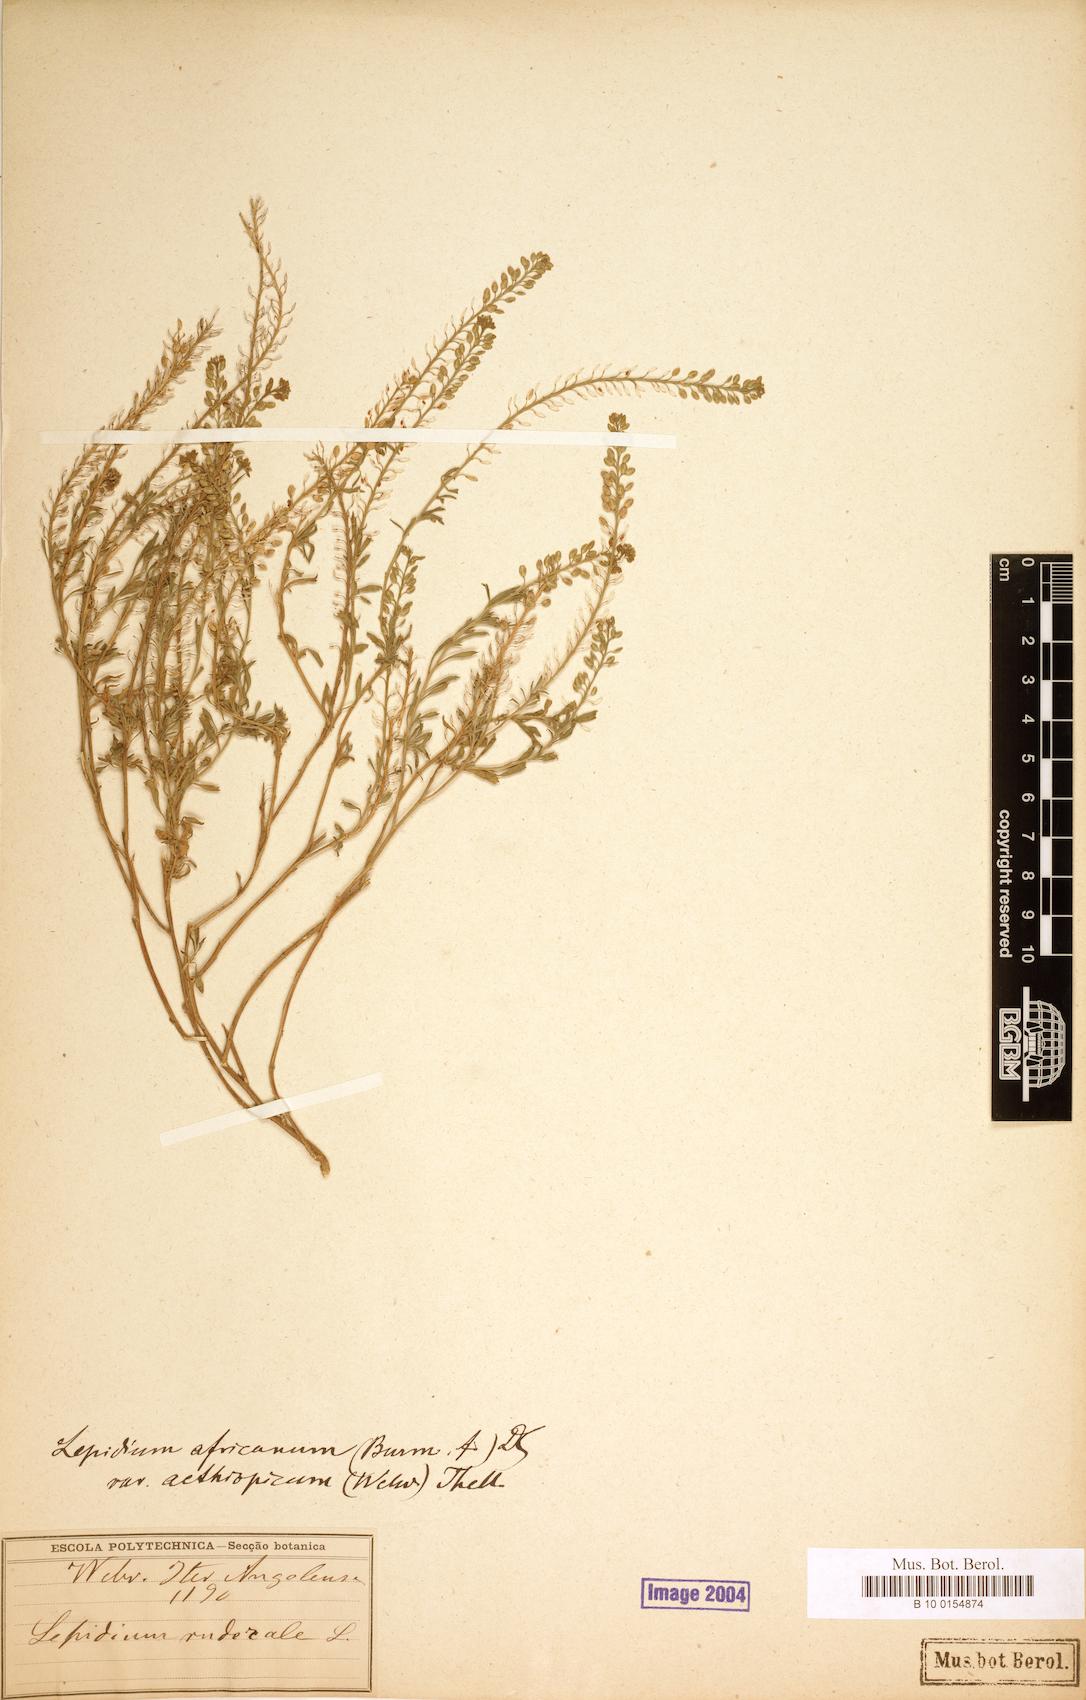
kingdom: Plantae
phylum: Tracheophyta
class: Magnoliopsida
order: Brassicales
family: Brassicaceae
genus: Lepidium
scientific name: Lepidium ruderale
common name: Narrow-leaved pepperwort
